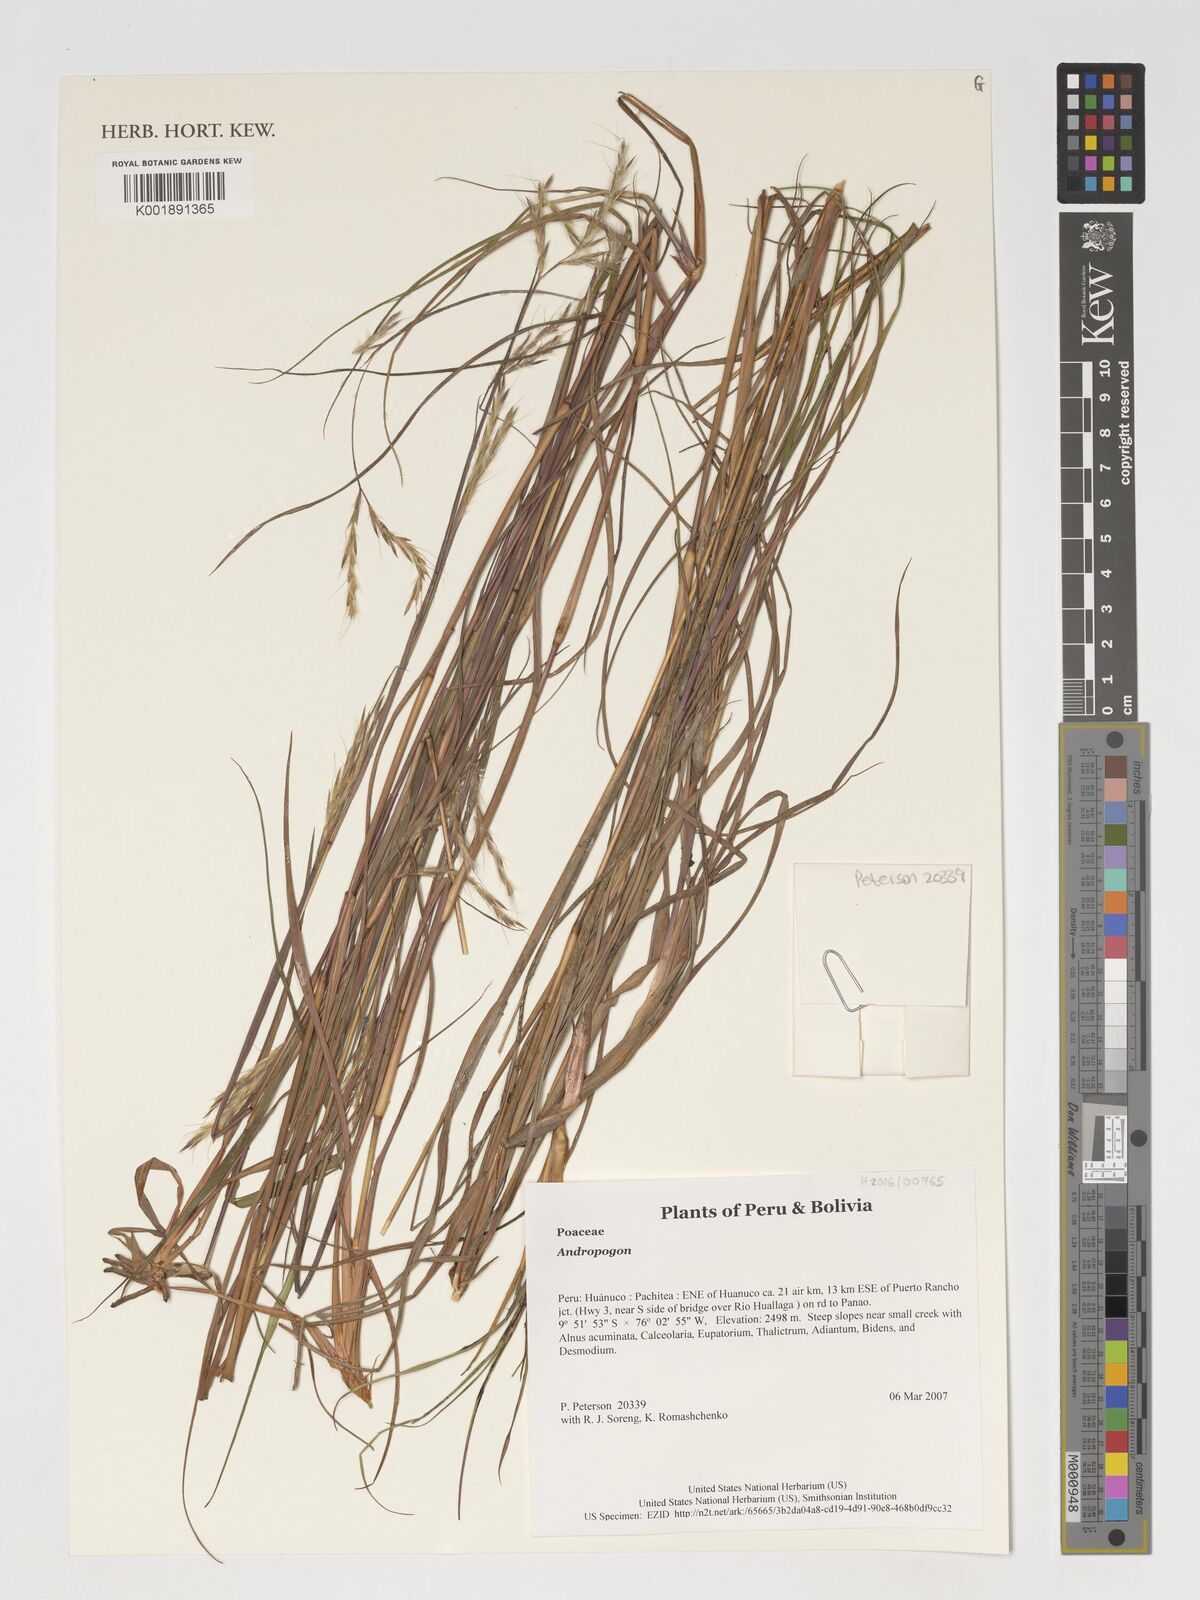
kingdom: Plantae
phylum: Tracheophyta
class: Liliopsida
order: Poales
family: Poaceae
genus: Andropogon
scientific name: Andropogon
